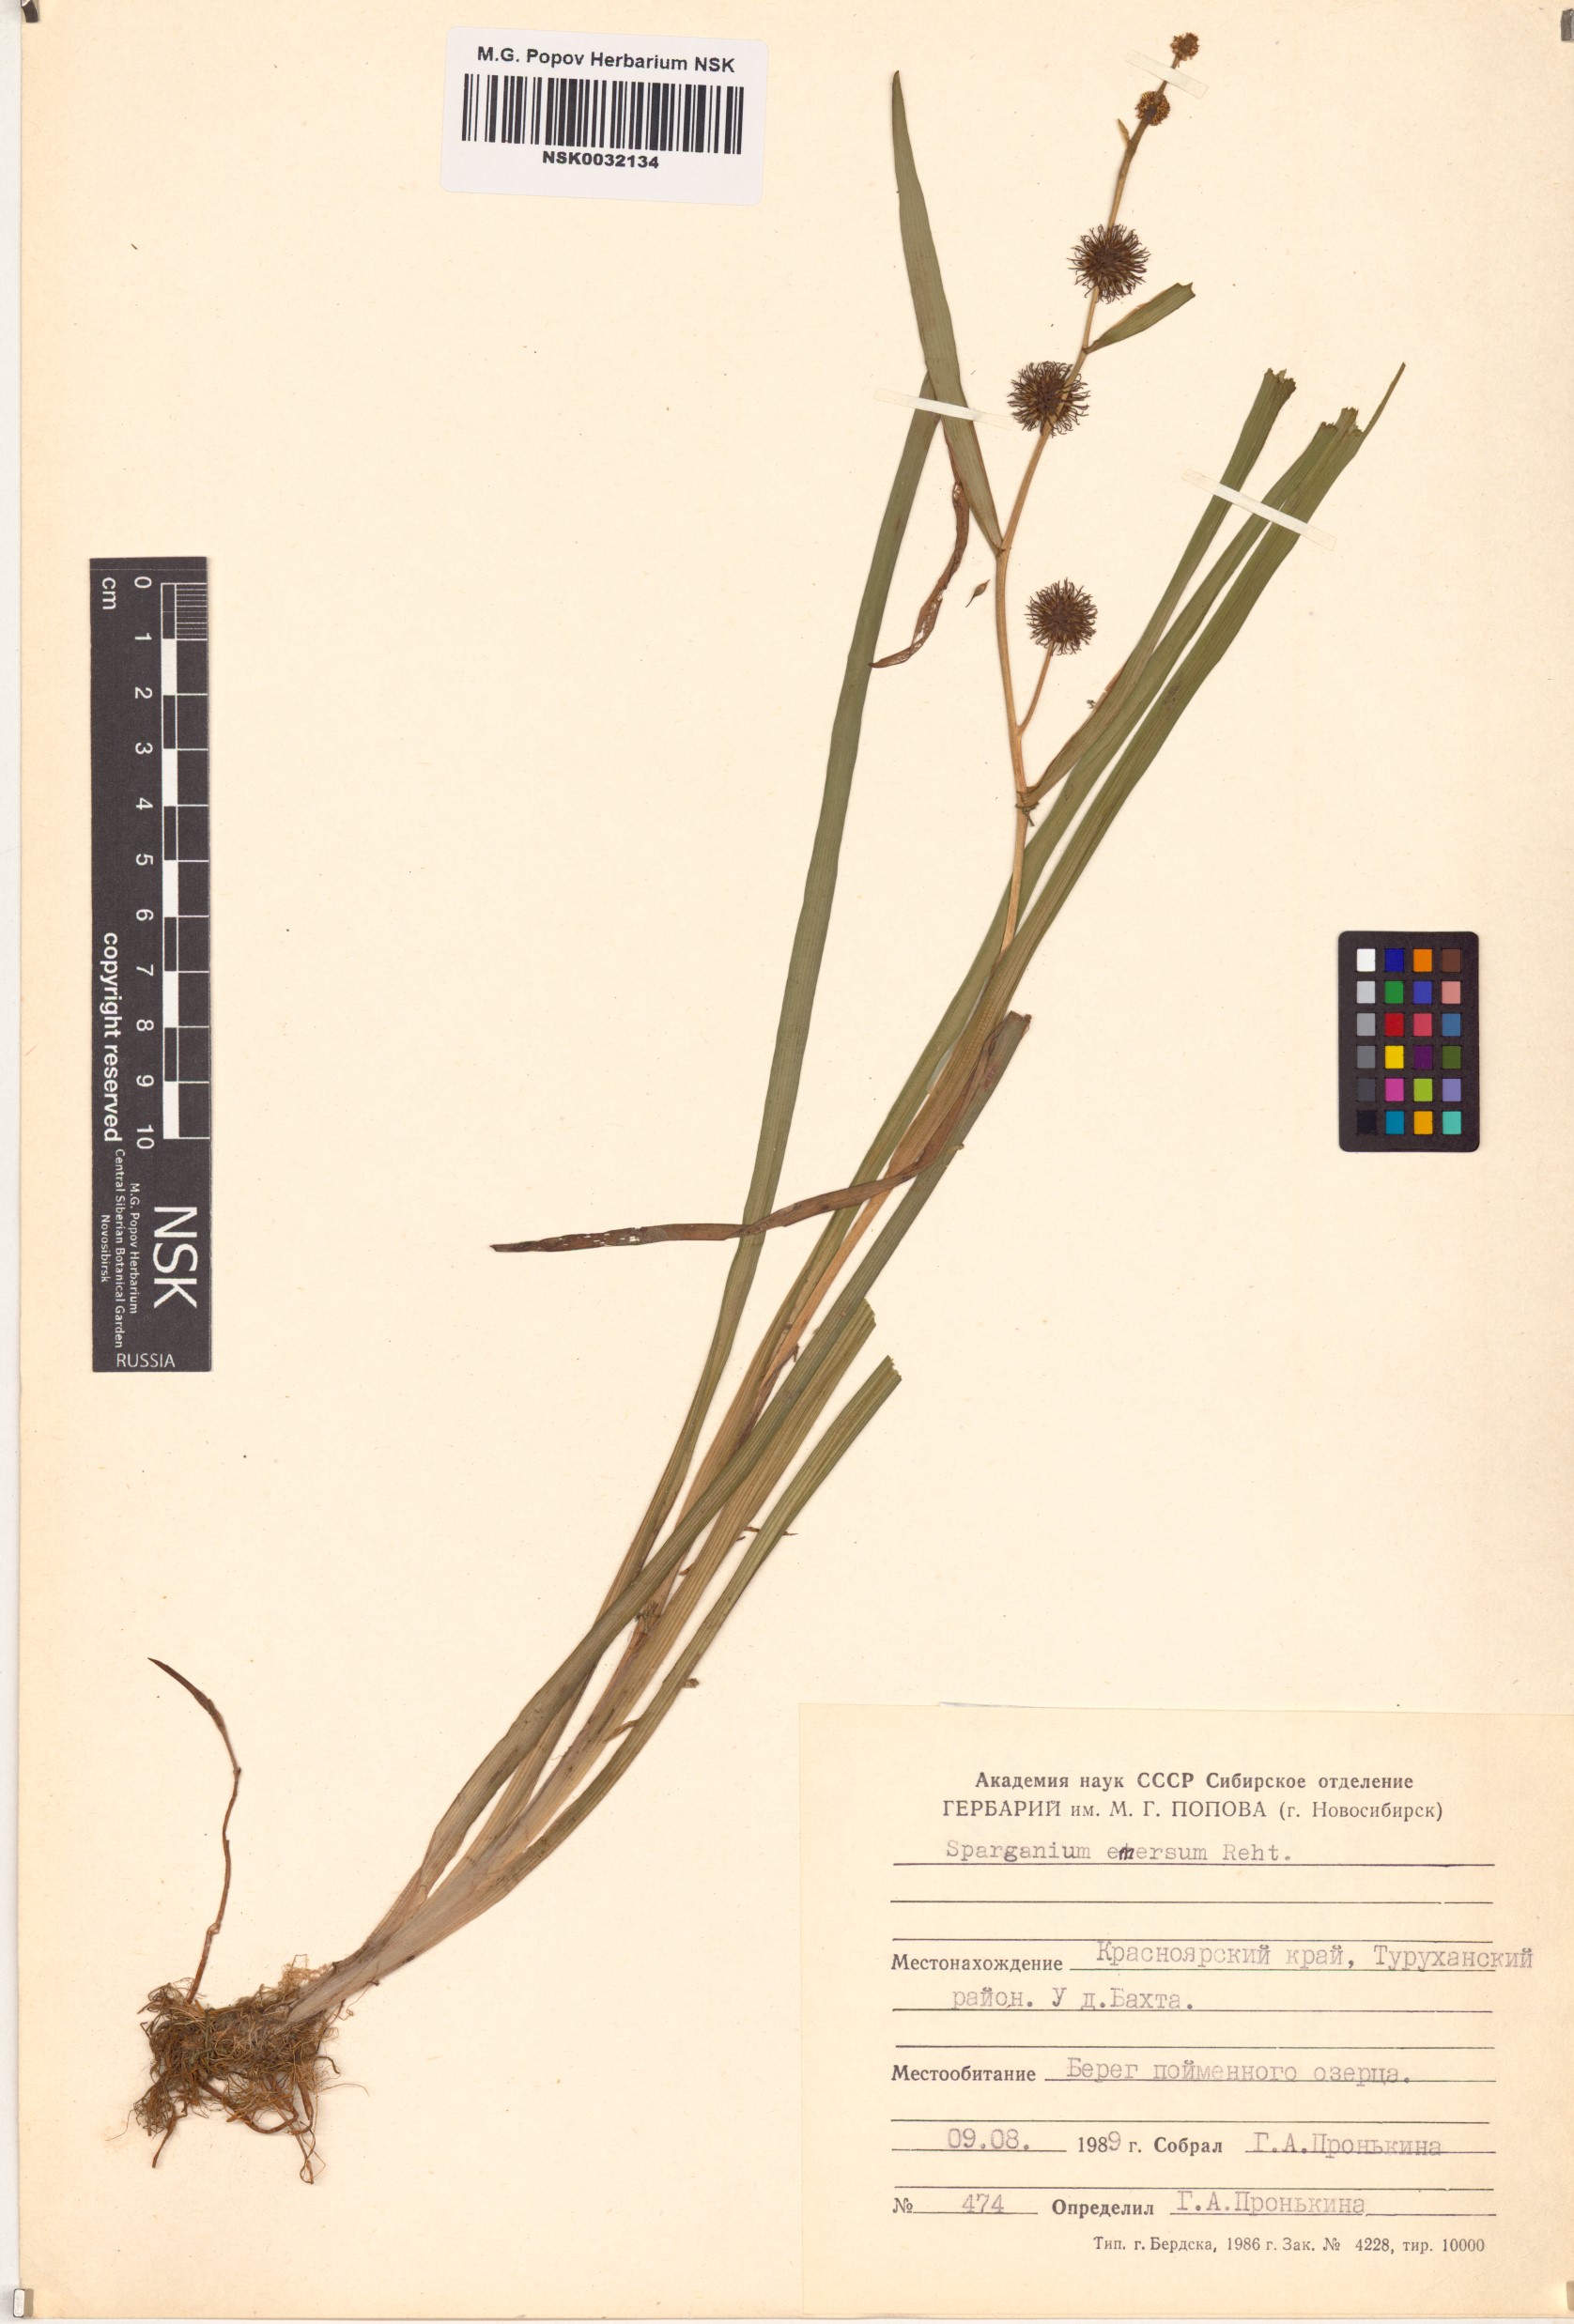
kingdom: Plantae
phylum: Tracheophyta
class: Liliopsida
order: Poales
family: Typhaceae
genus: Sparganium
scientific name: Sparganium emersum
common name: Unbranched bur-reed
